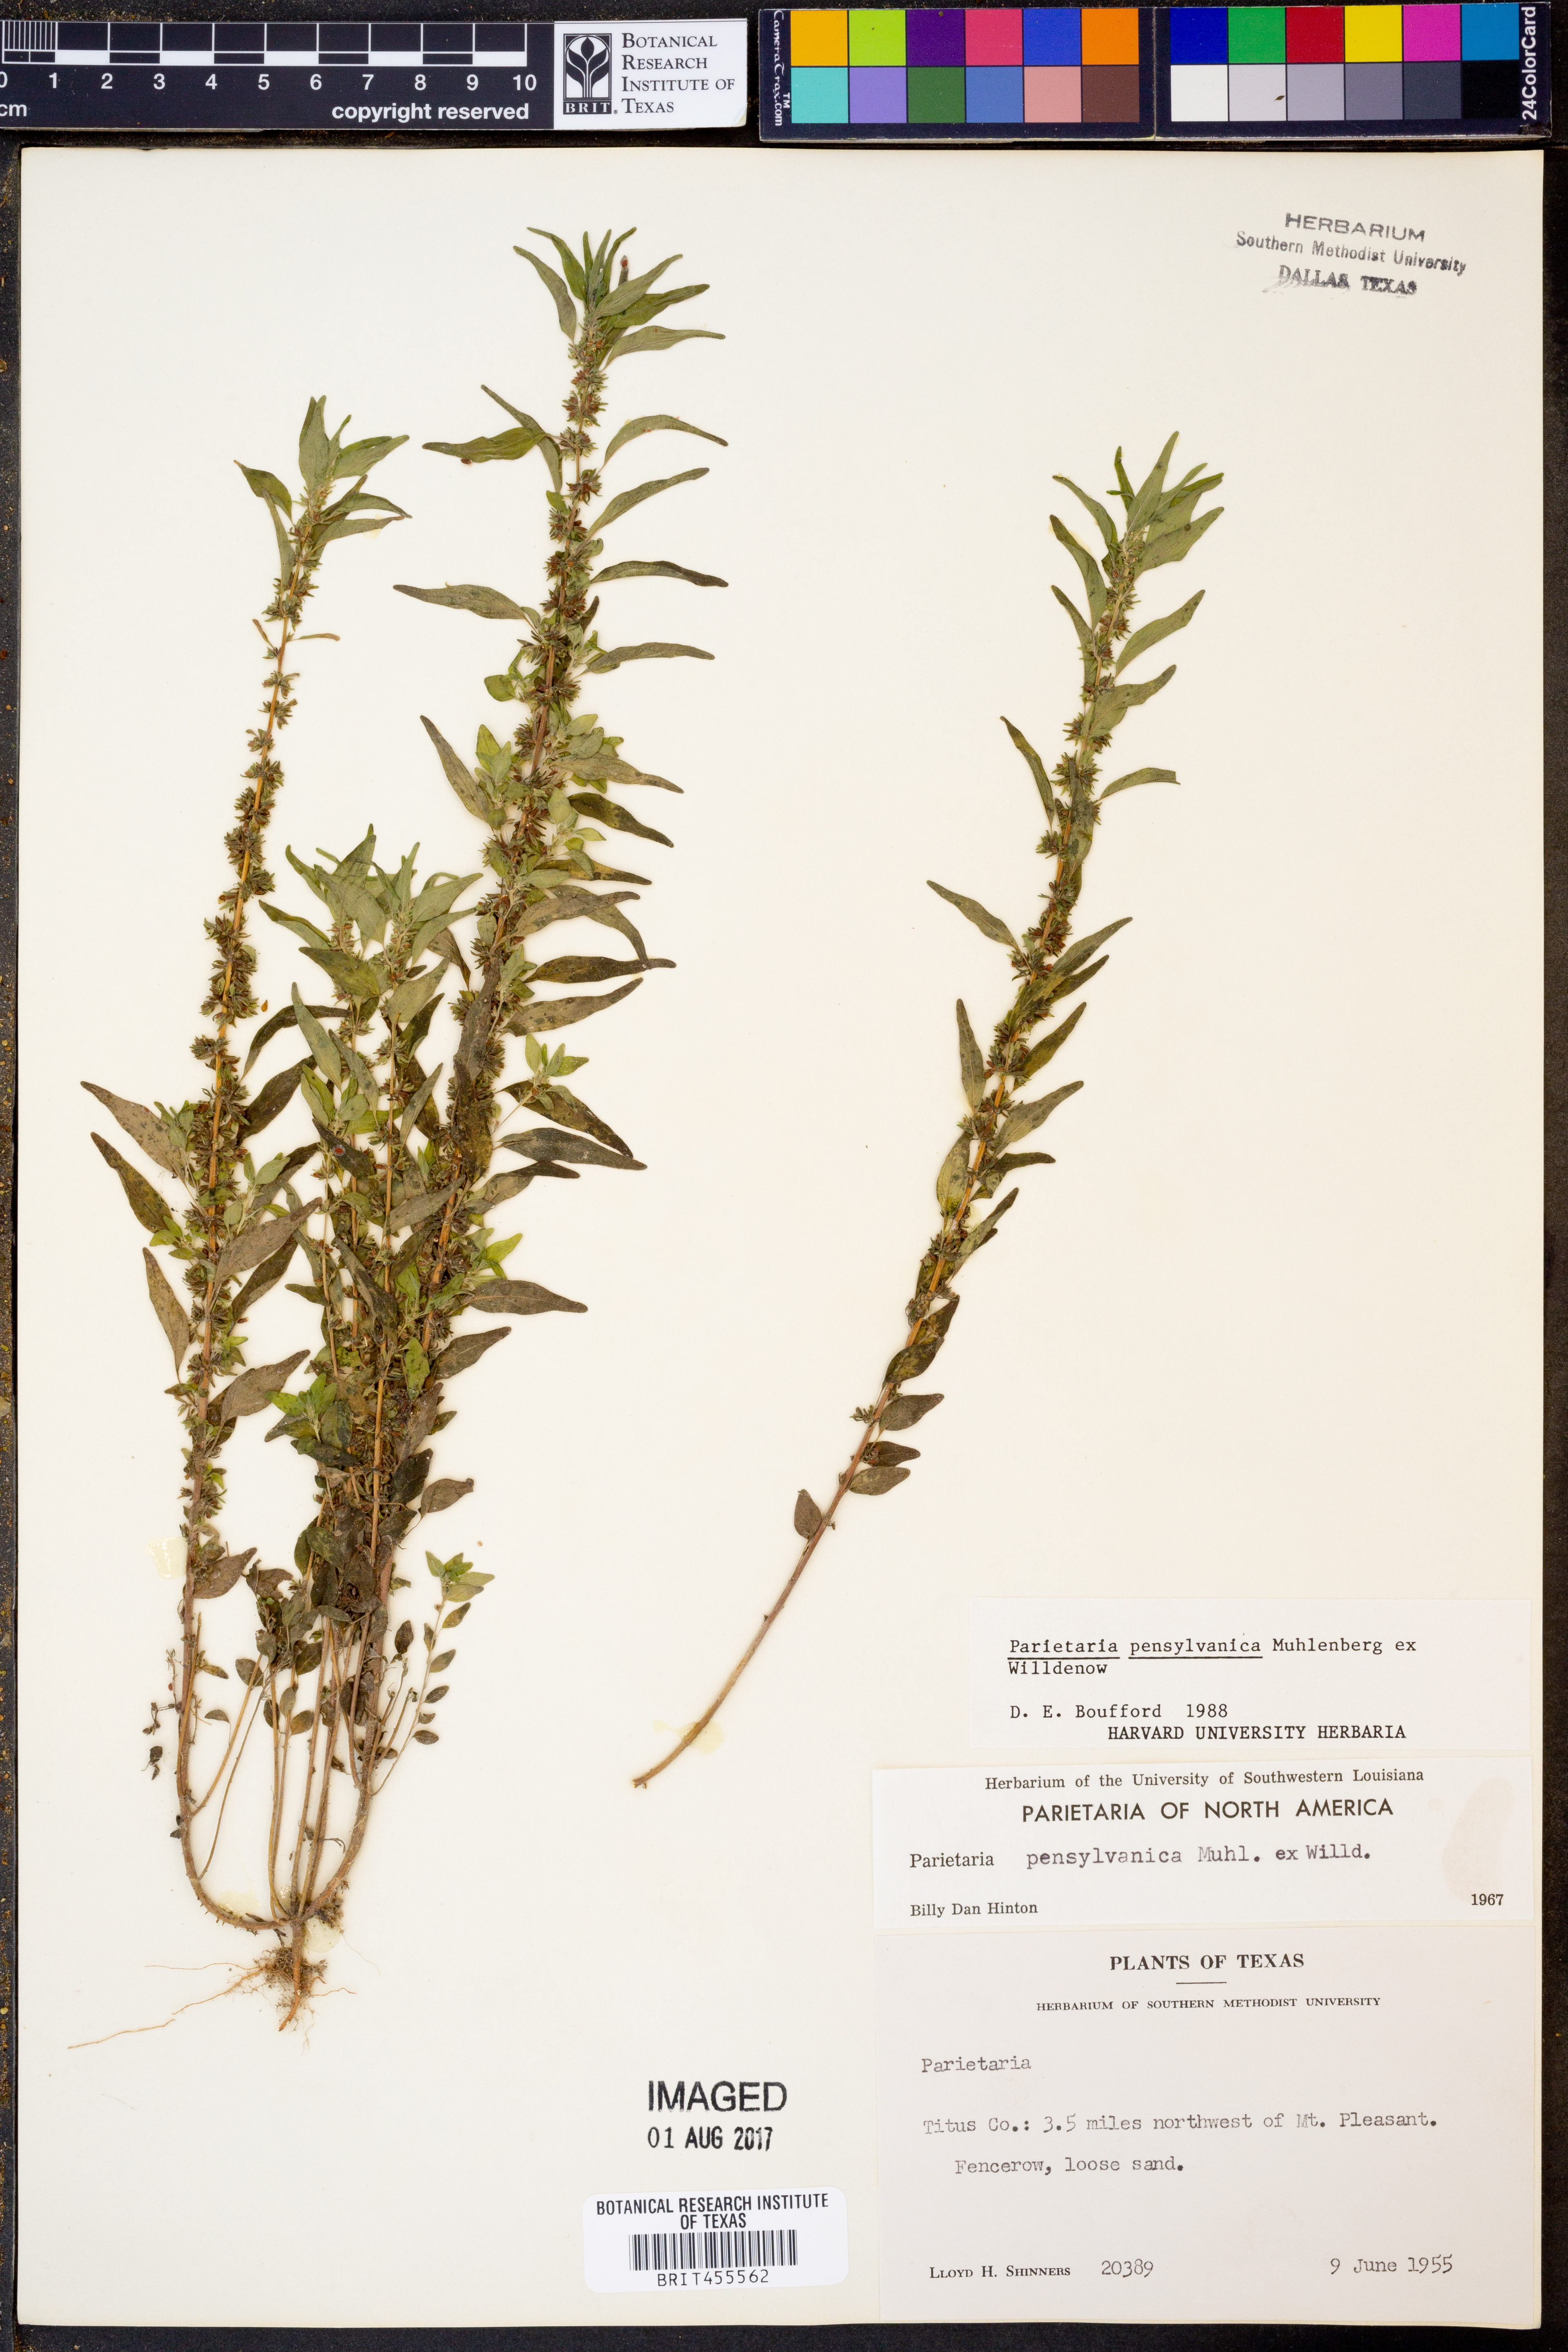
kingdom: Plantae
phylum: Tracheophyta
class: Magnoliopsida
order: Rosales
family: Urticaceae
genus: Parietaria
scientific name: Parietaria pensylvanica
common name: Pennsylvania pellitory
